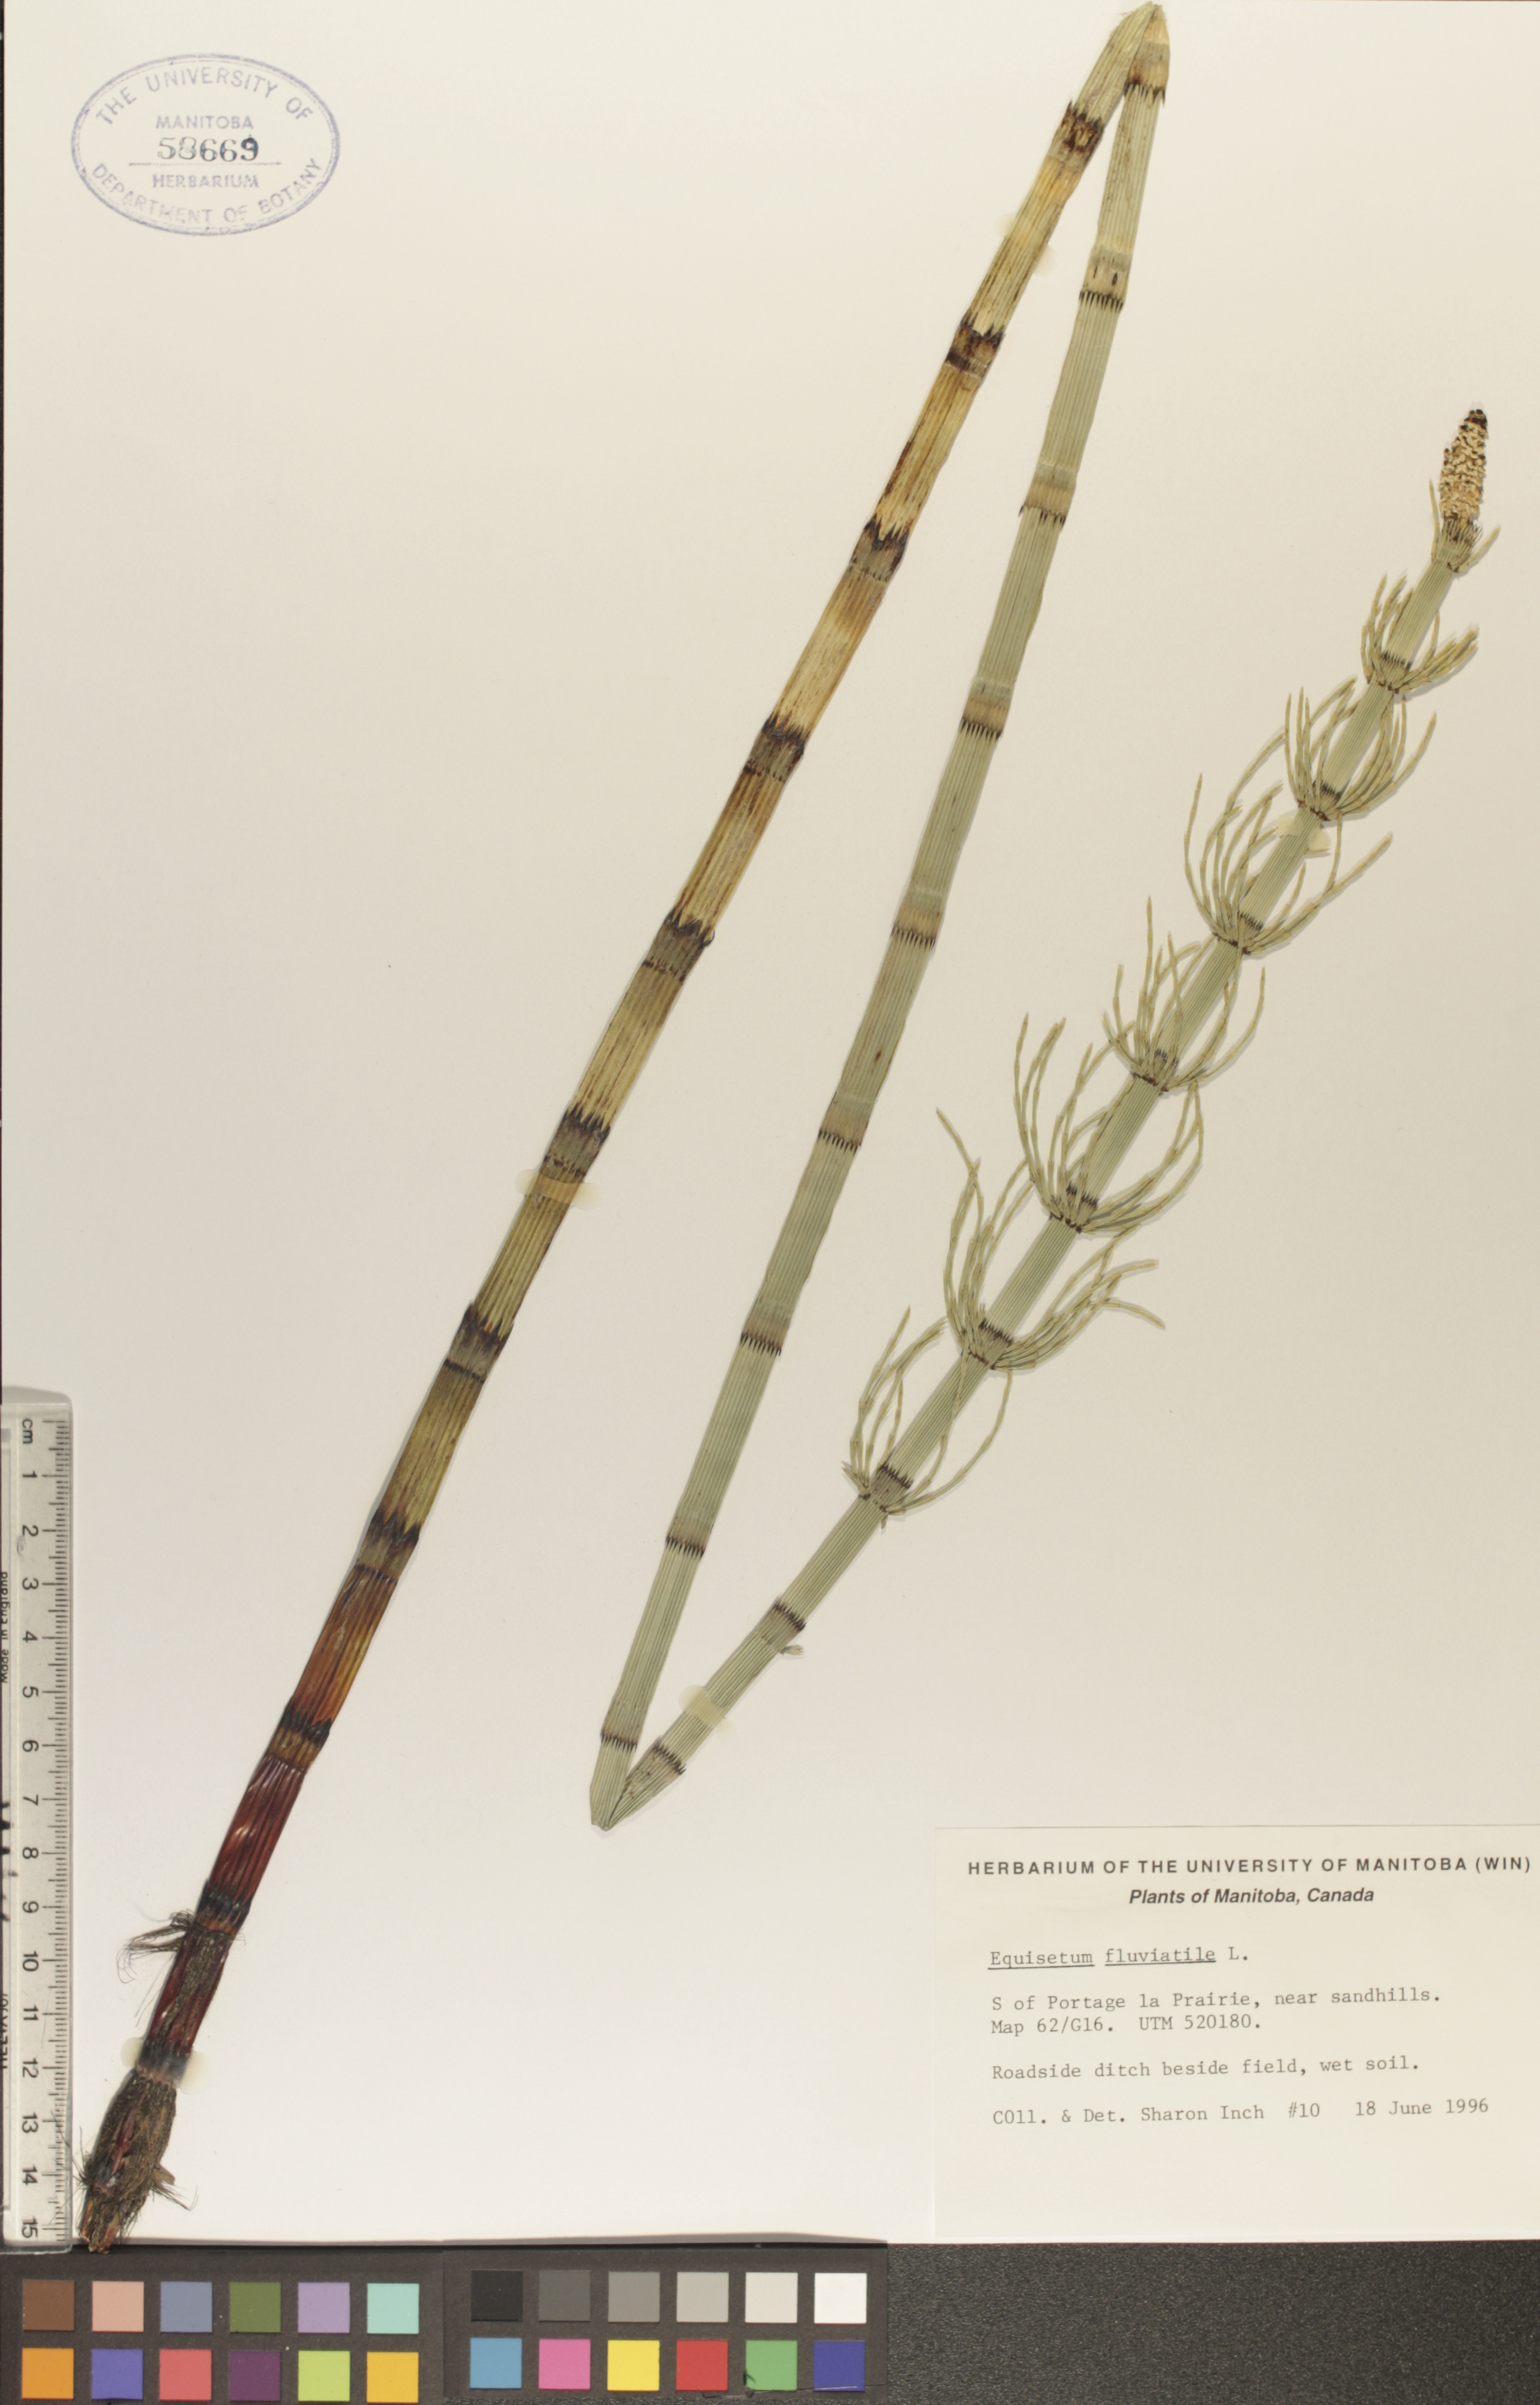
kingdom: Plantae
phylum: Tracheophyta
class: Polypodiopsida
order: Equisetales
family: Equisetaceae
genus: Equisetum
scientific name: Equisetum fluviatile
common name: Water horsetail
